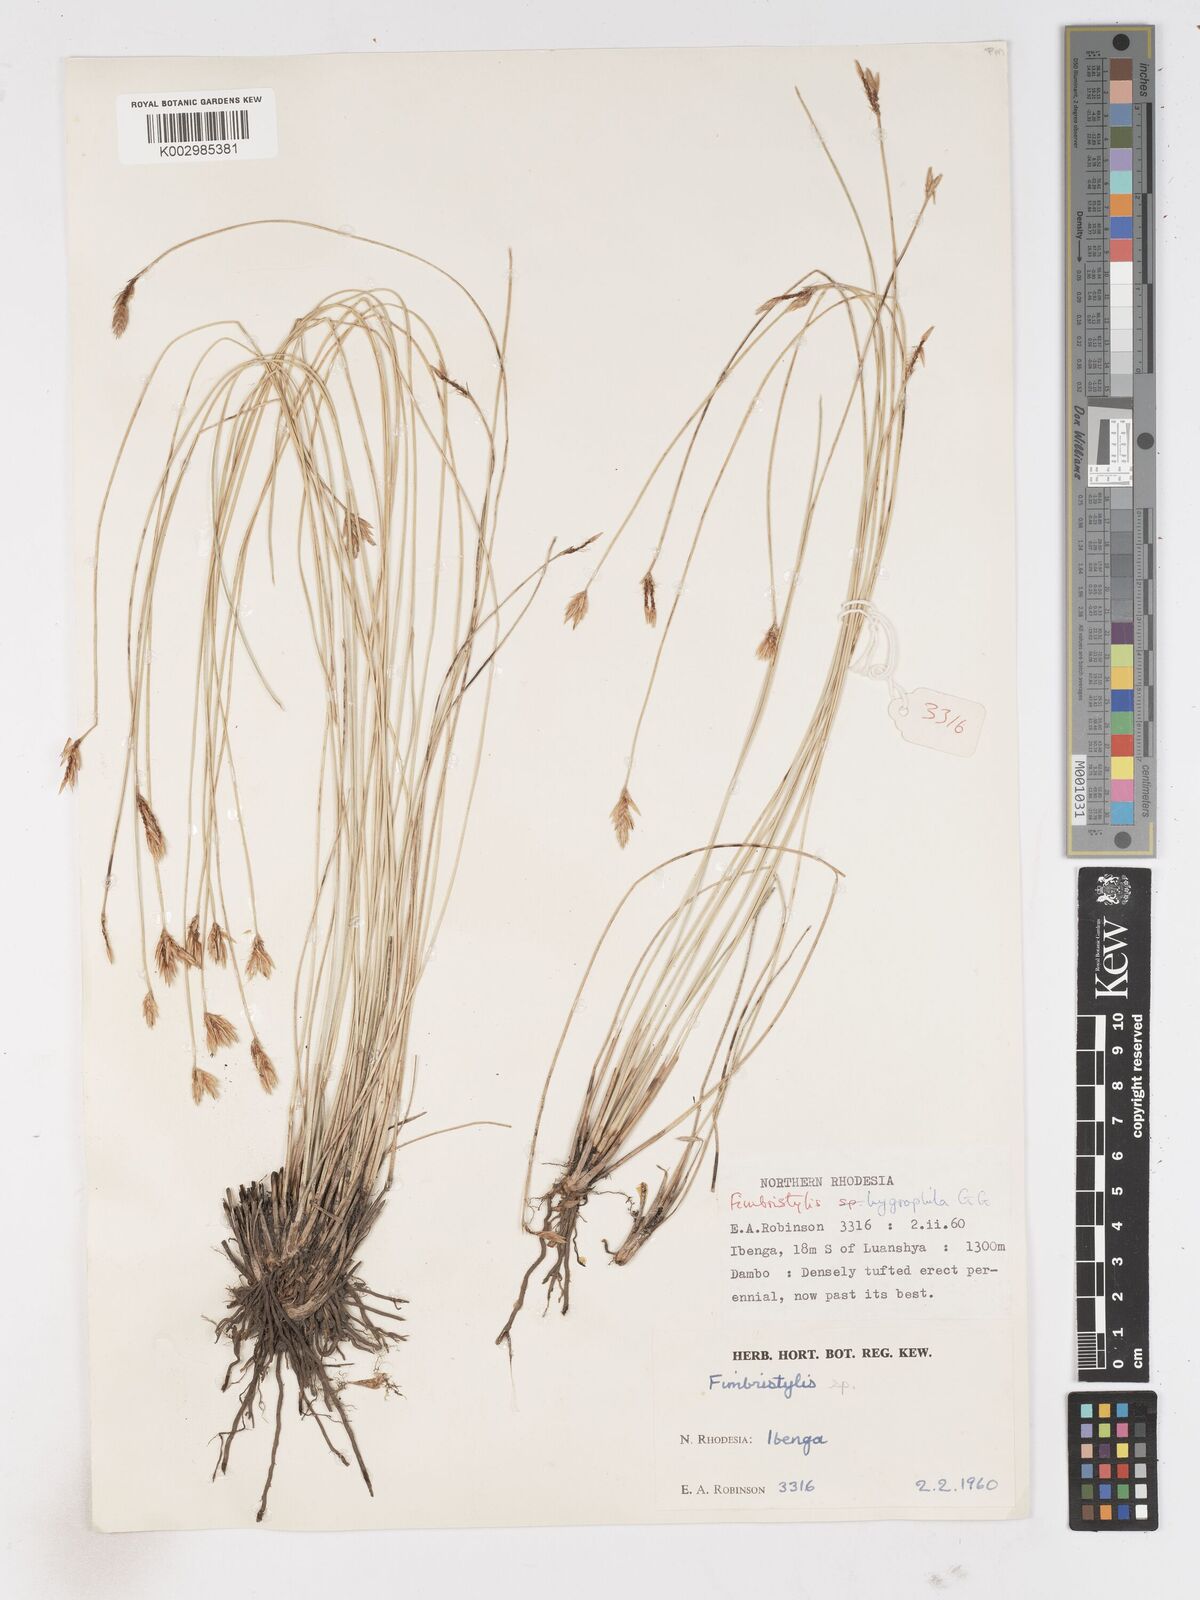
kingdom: Plantae
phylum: Tracheophyta
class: Liliopsida
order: Poales
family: Cyperaceae
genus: Zulustylis
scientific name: Zulustylis hygrophila
